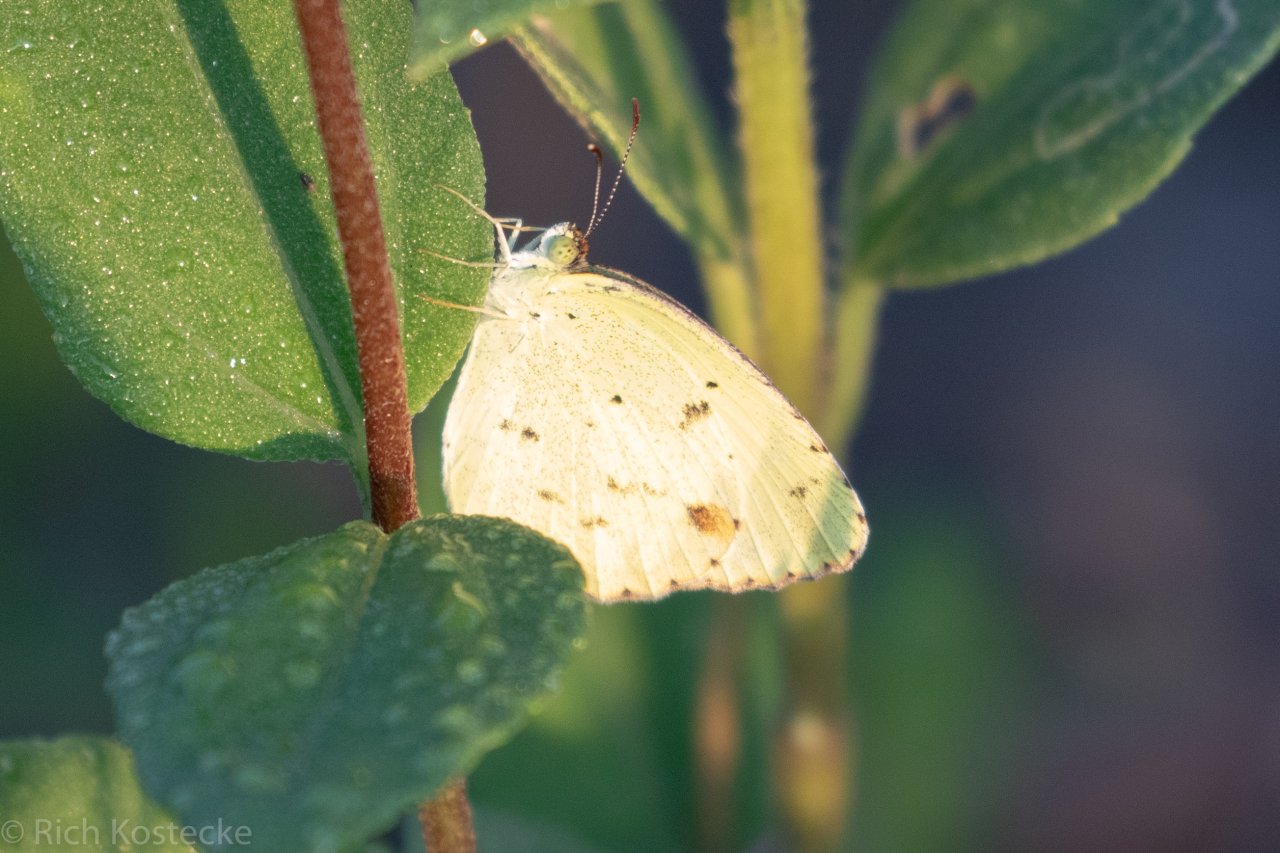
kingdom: Animalia
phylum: Arthropoda
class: Insecta
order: Lepidoptera
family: Pieridae
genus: Pyrisitia
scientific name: Pyrisitia lisa
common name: Little Yellow
